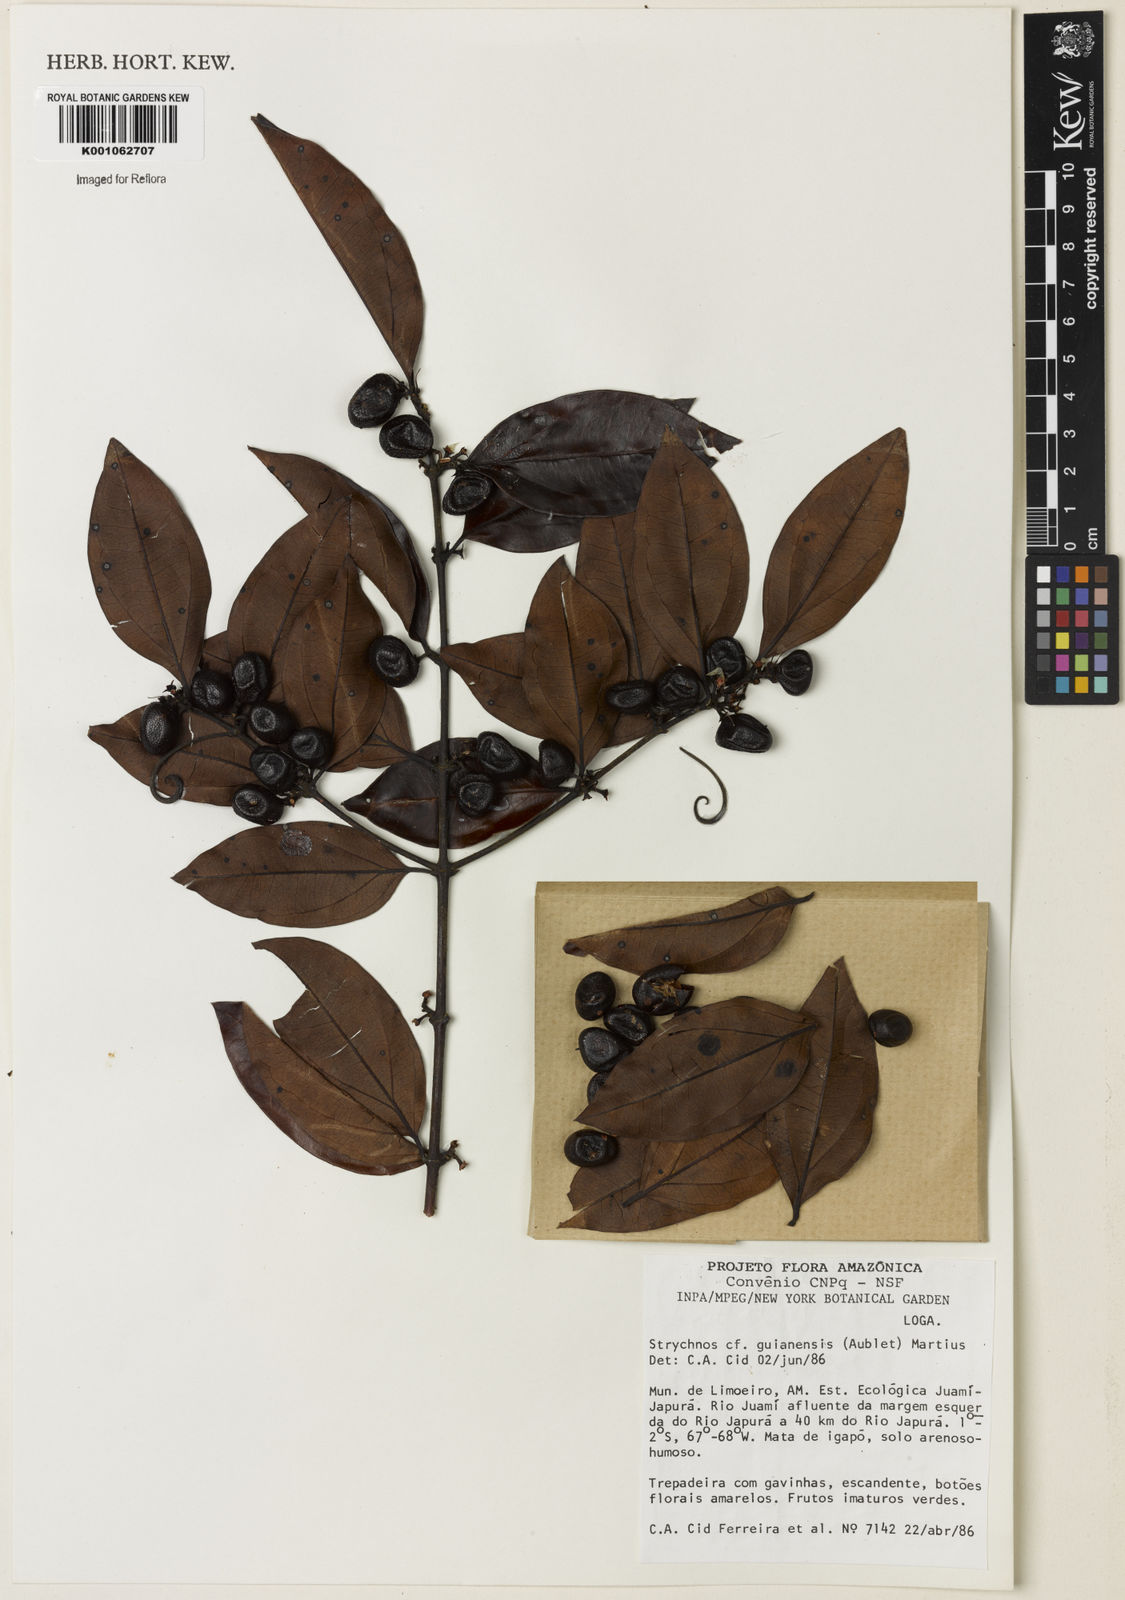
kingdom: Plantae
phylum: Tracheophyta
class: Magnoliopsida
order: Gentianales
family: Loganiaceae
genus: Strychnos
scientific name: Strychnos guianensis
